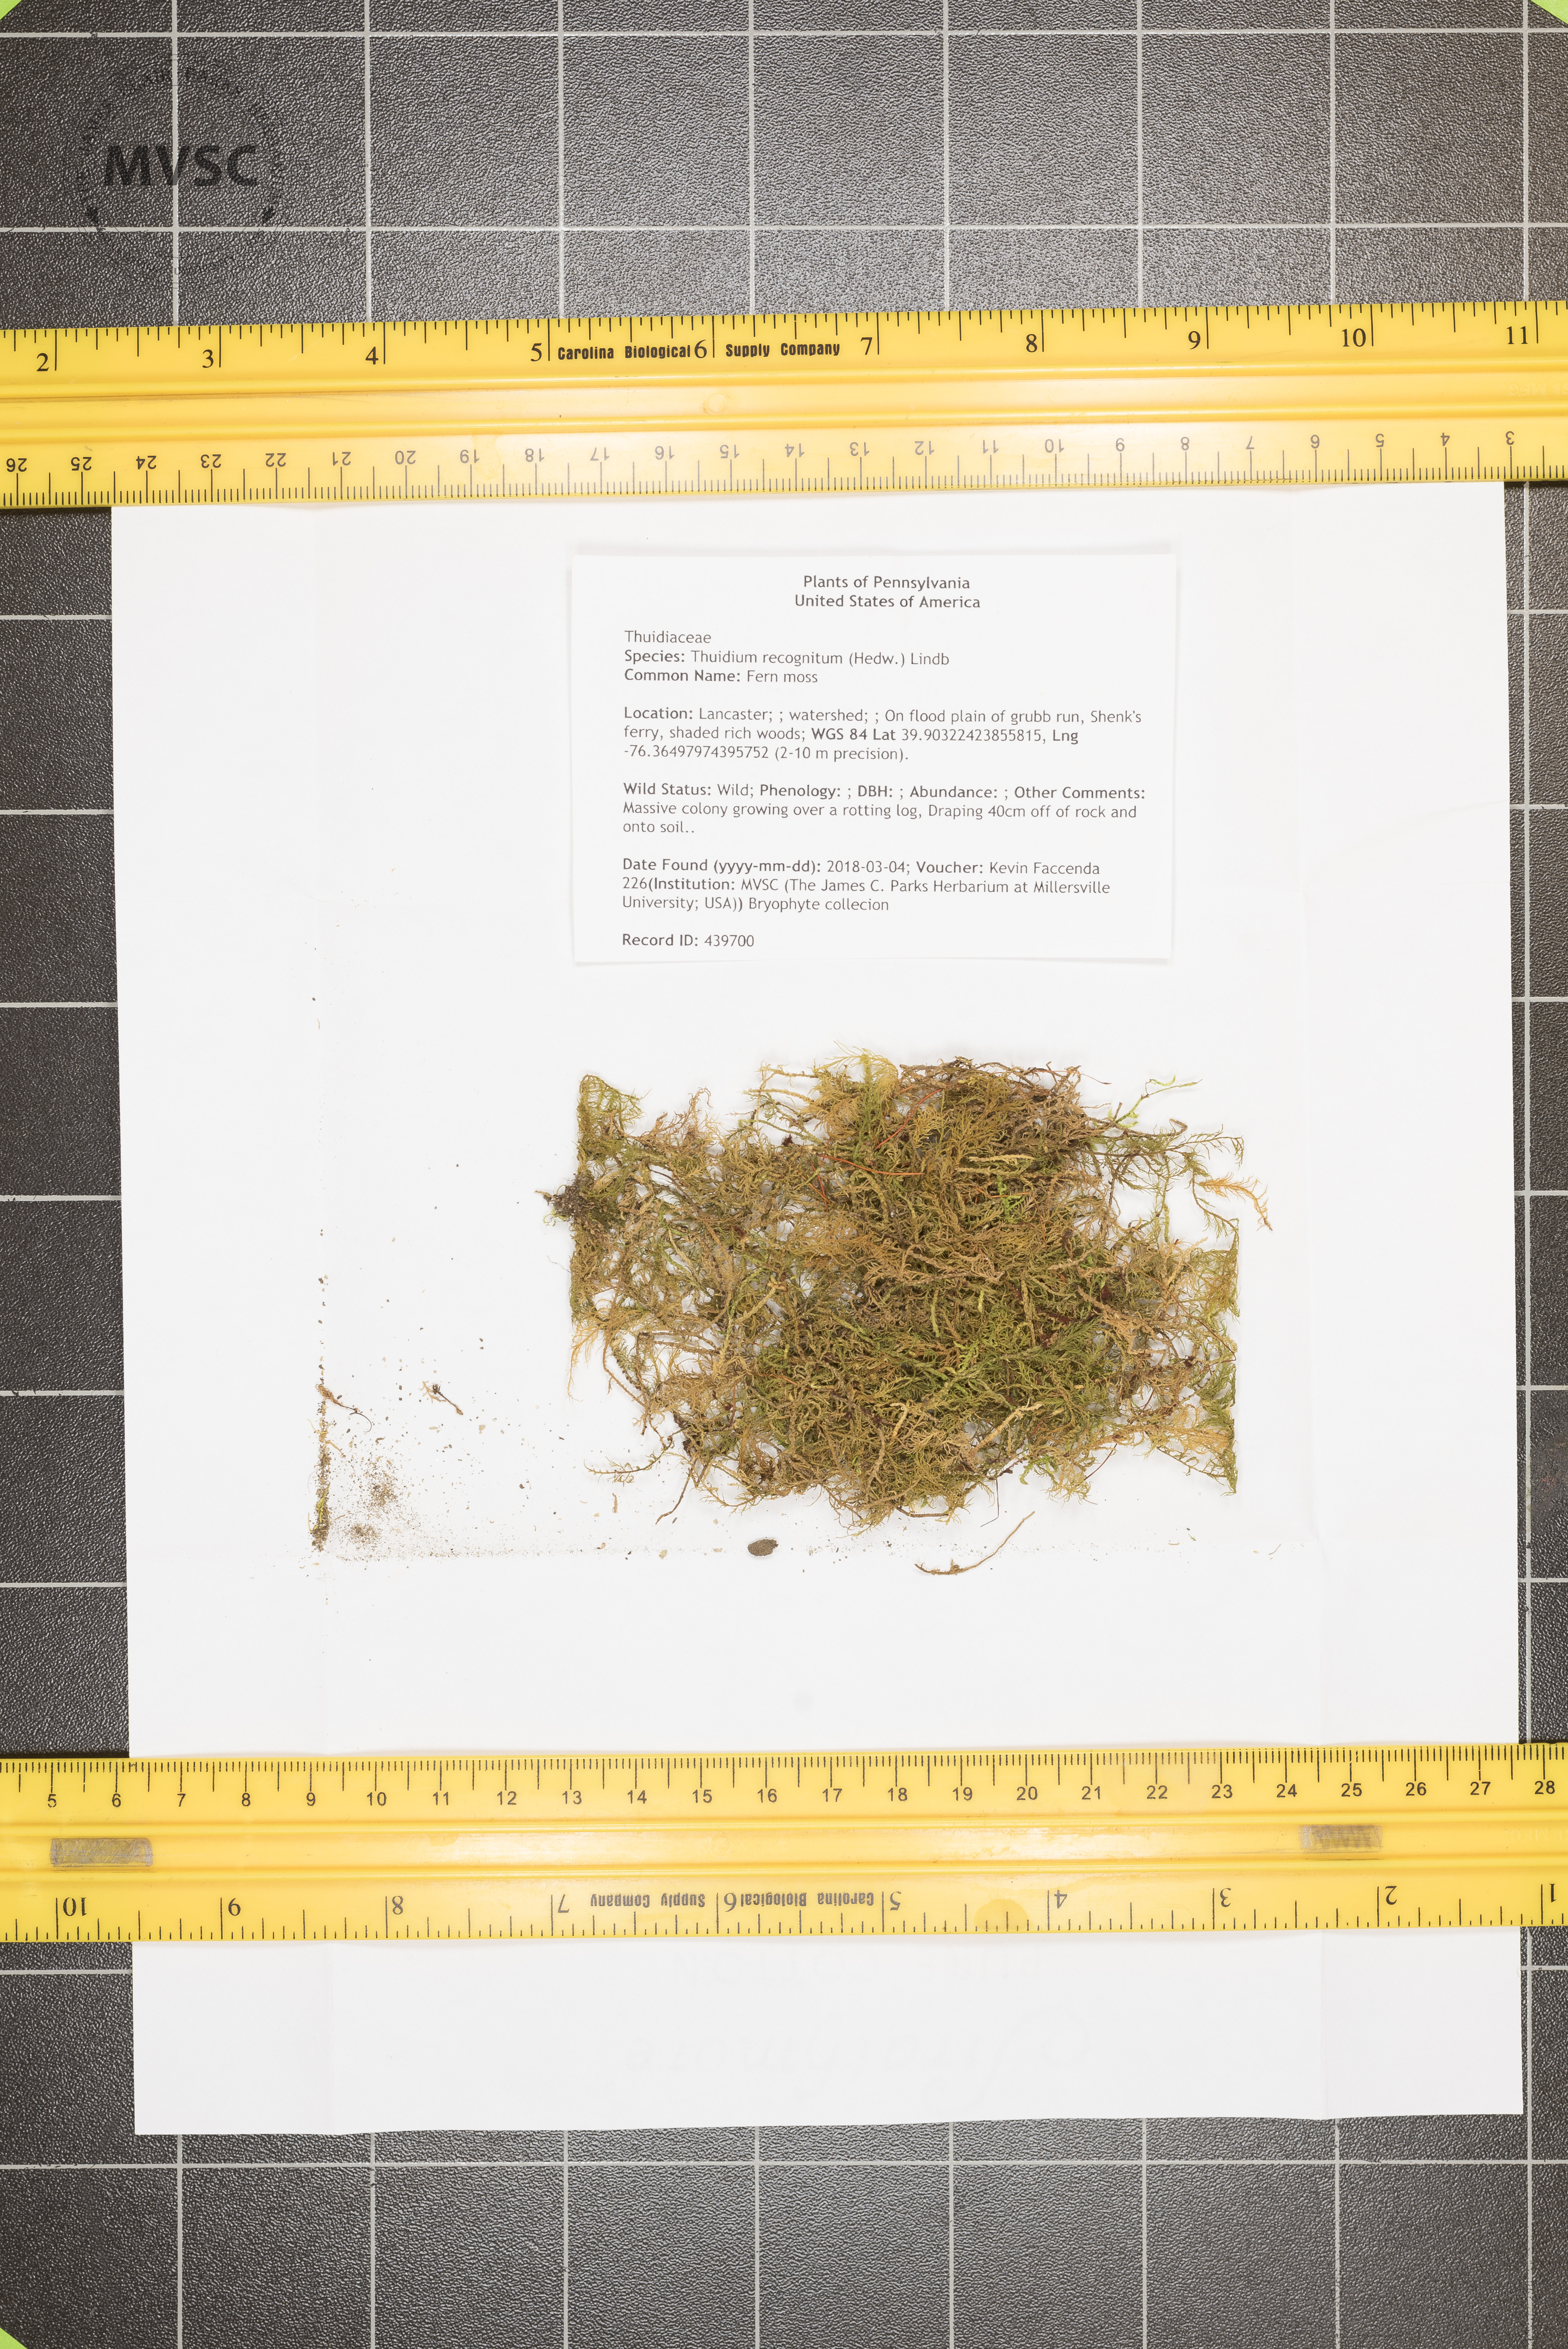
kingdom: Plantae
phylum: Bryophyta
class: Bryopsida
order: Hypnales
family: Thuidiaceae
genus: Thuidium
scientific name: Thuidium recognitum
